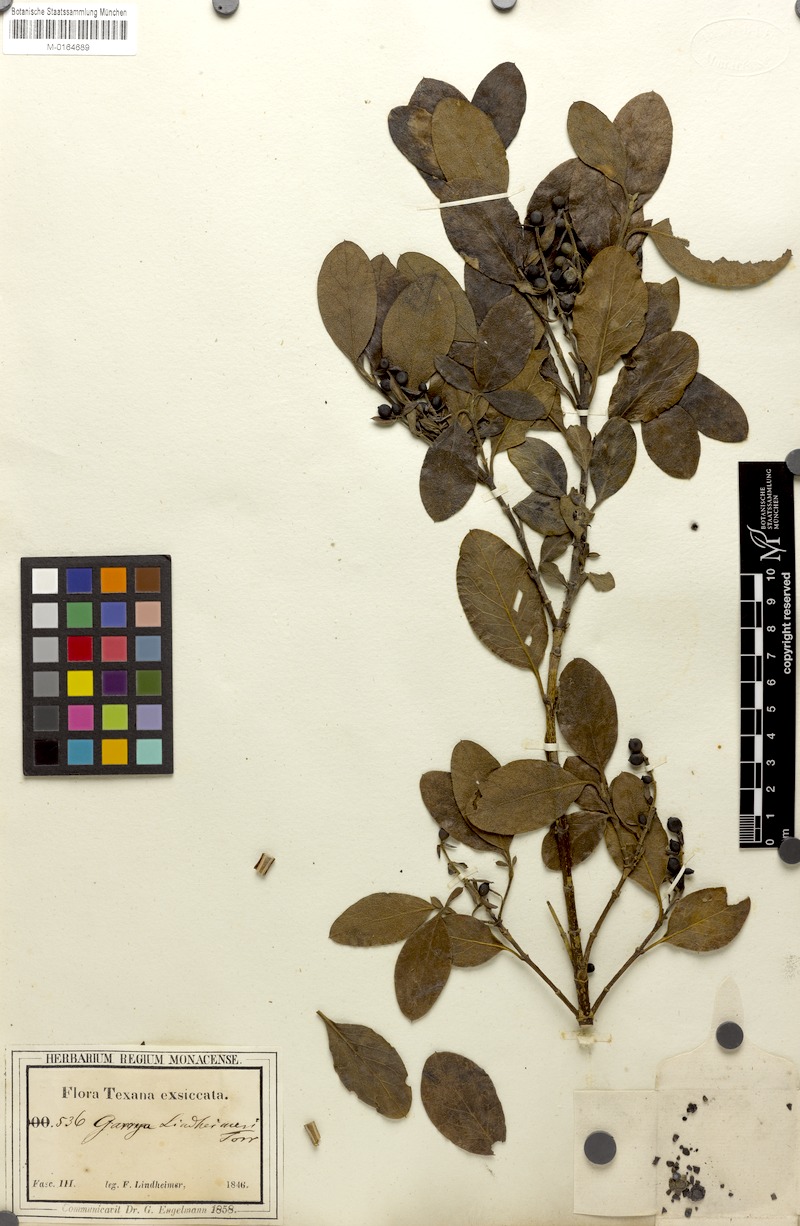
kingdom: Plantae
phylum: Tracheophyta
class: Magnoliopsida
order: Garryales
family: Garryaceae
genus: Garrya
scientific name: Garrya lindheimeri
